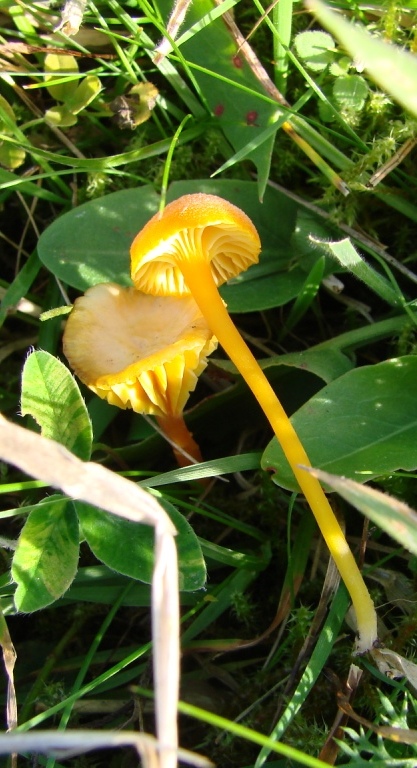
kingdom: Fungi
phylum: Basidiomycota
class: Agaricomycetes
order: Agaricales
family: Hygrophoraceae
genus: Hygrocybe
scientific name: Hygrocybe cantharellus
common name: kantarel-vokshat
